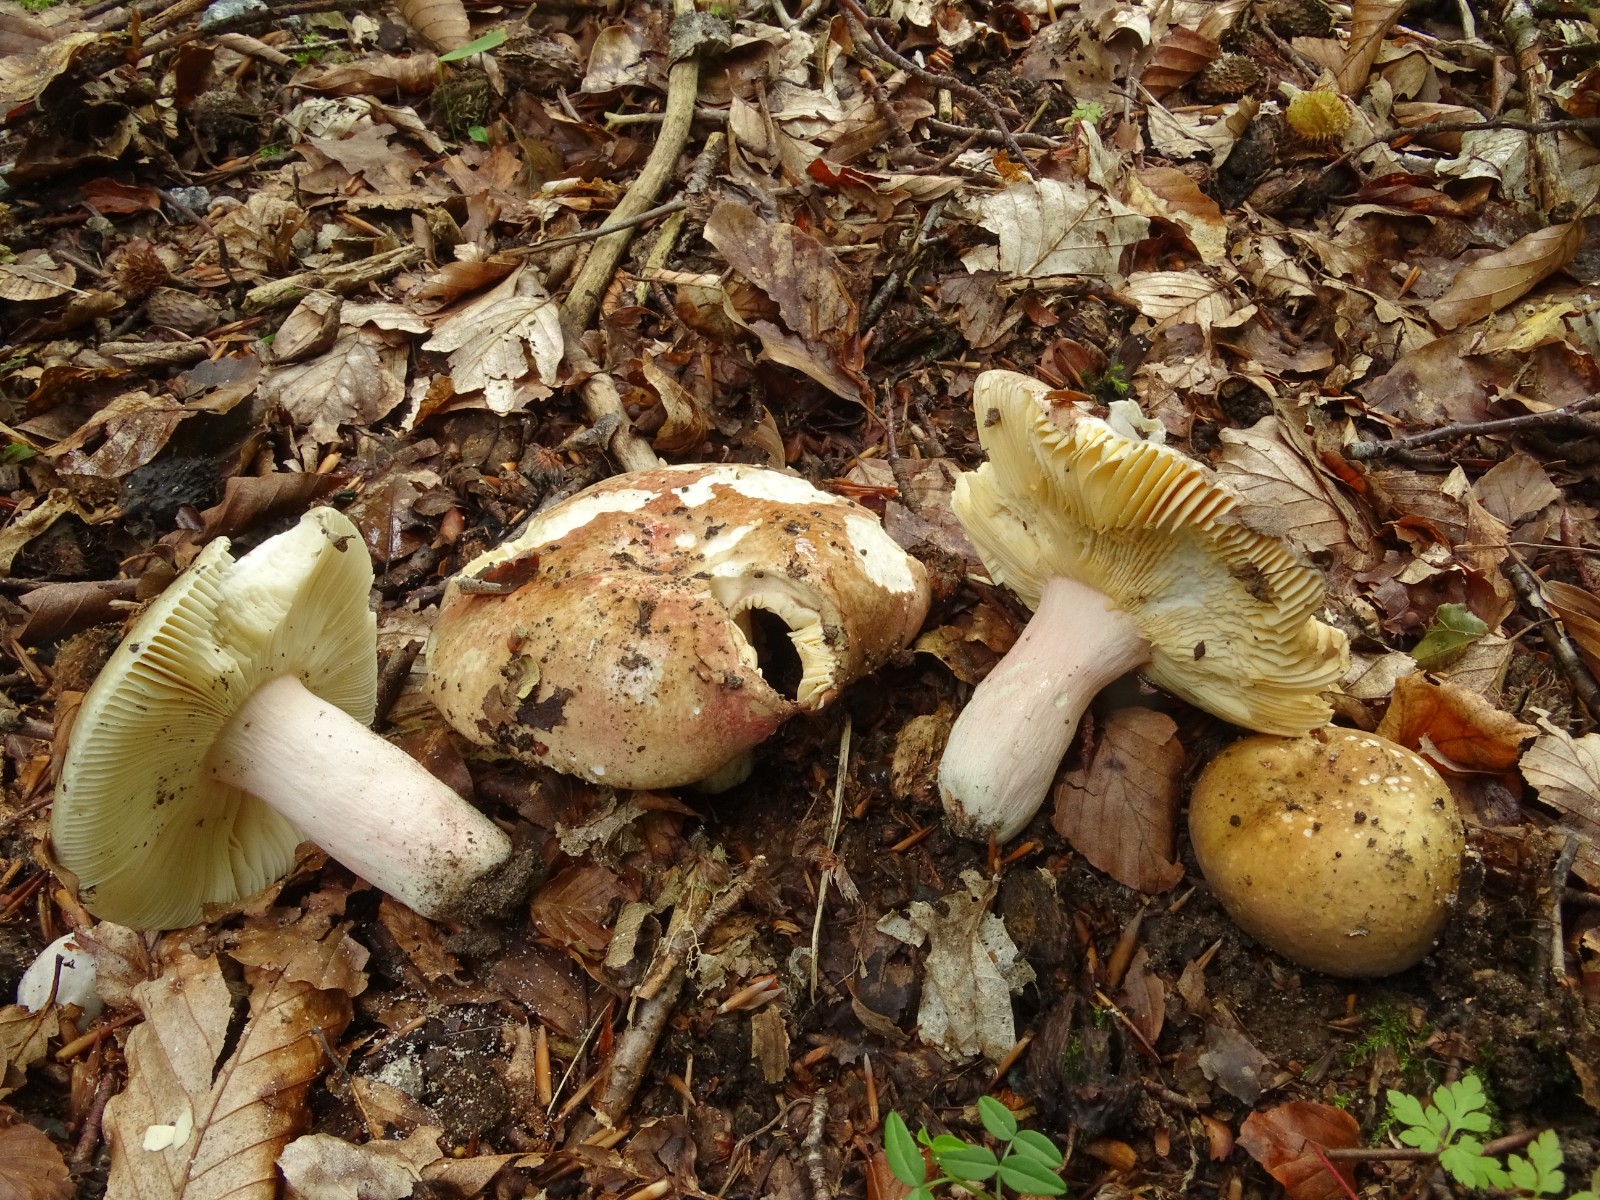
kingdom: Fungi
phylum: Basidiomycota
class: Agaricomycetes
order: Russulales
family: Russulaceae
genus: Russula
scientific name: Russula olivacea
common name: stor skørhat
